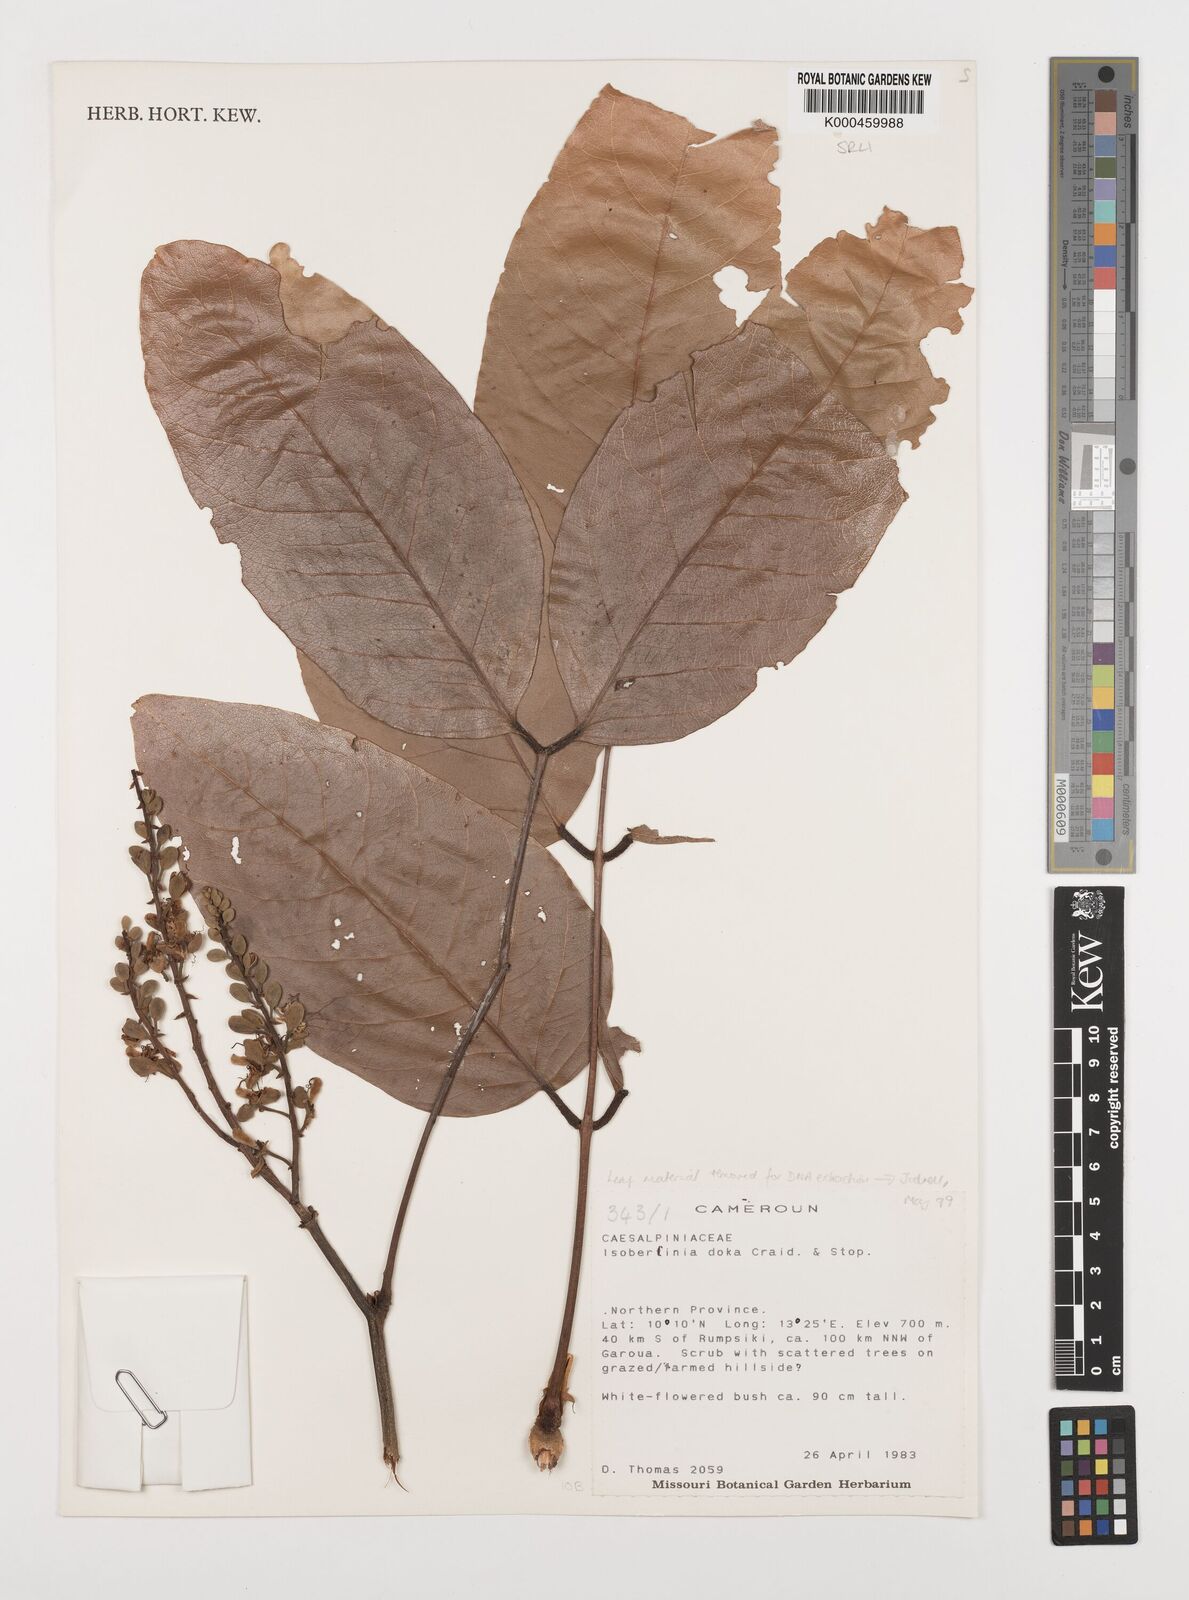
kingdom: Plantae
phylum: Tracheophyta
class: Magnoliopsida
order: Fabales
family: Fabaceae
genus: Isoberlinia
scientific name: Isoberlinia doka
